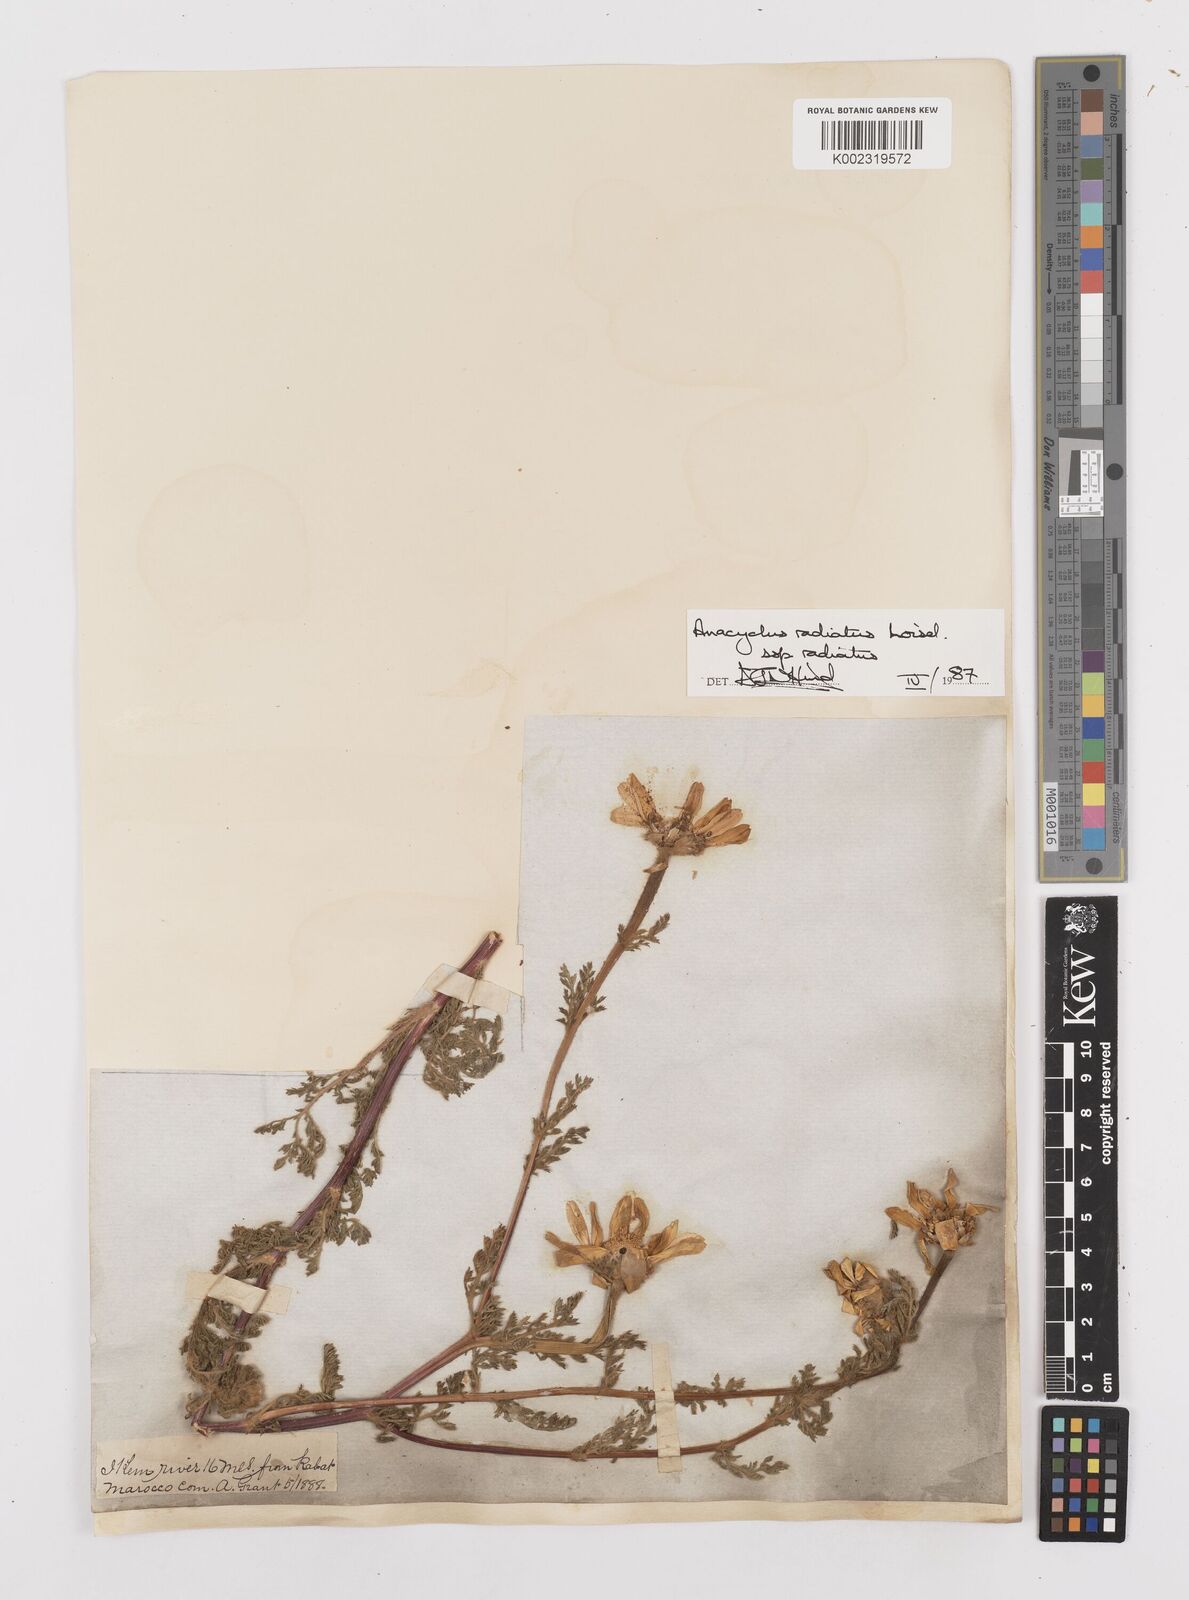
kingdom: Plantae
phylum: Tracheophyta
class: Magnoliopsida
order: Asterales
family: Asteraceae
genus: Anacyclus
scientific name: Anacyclus radiatus
